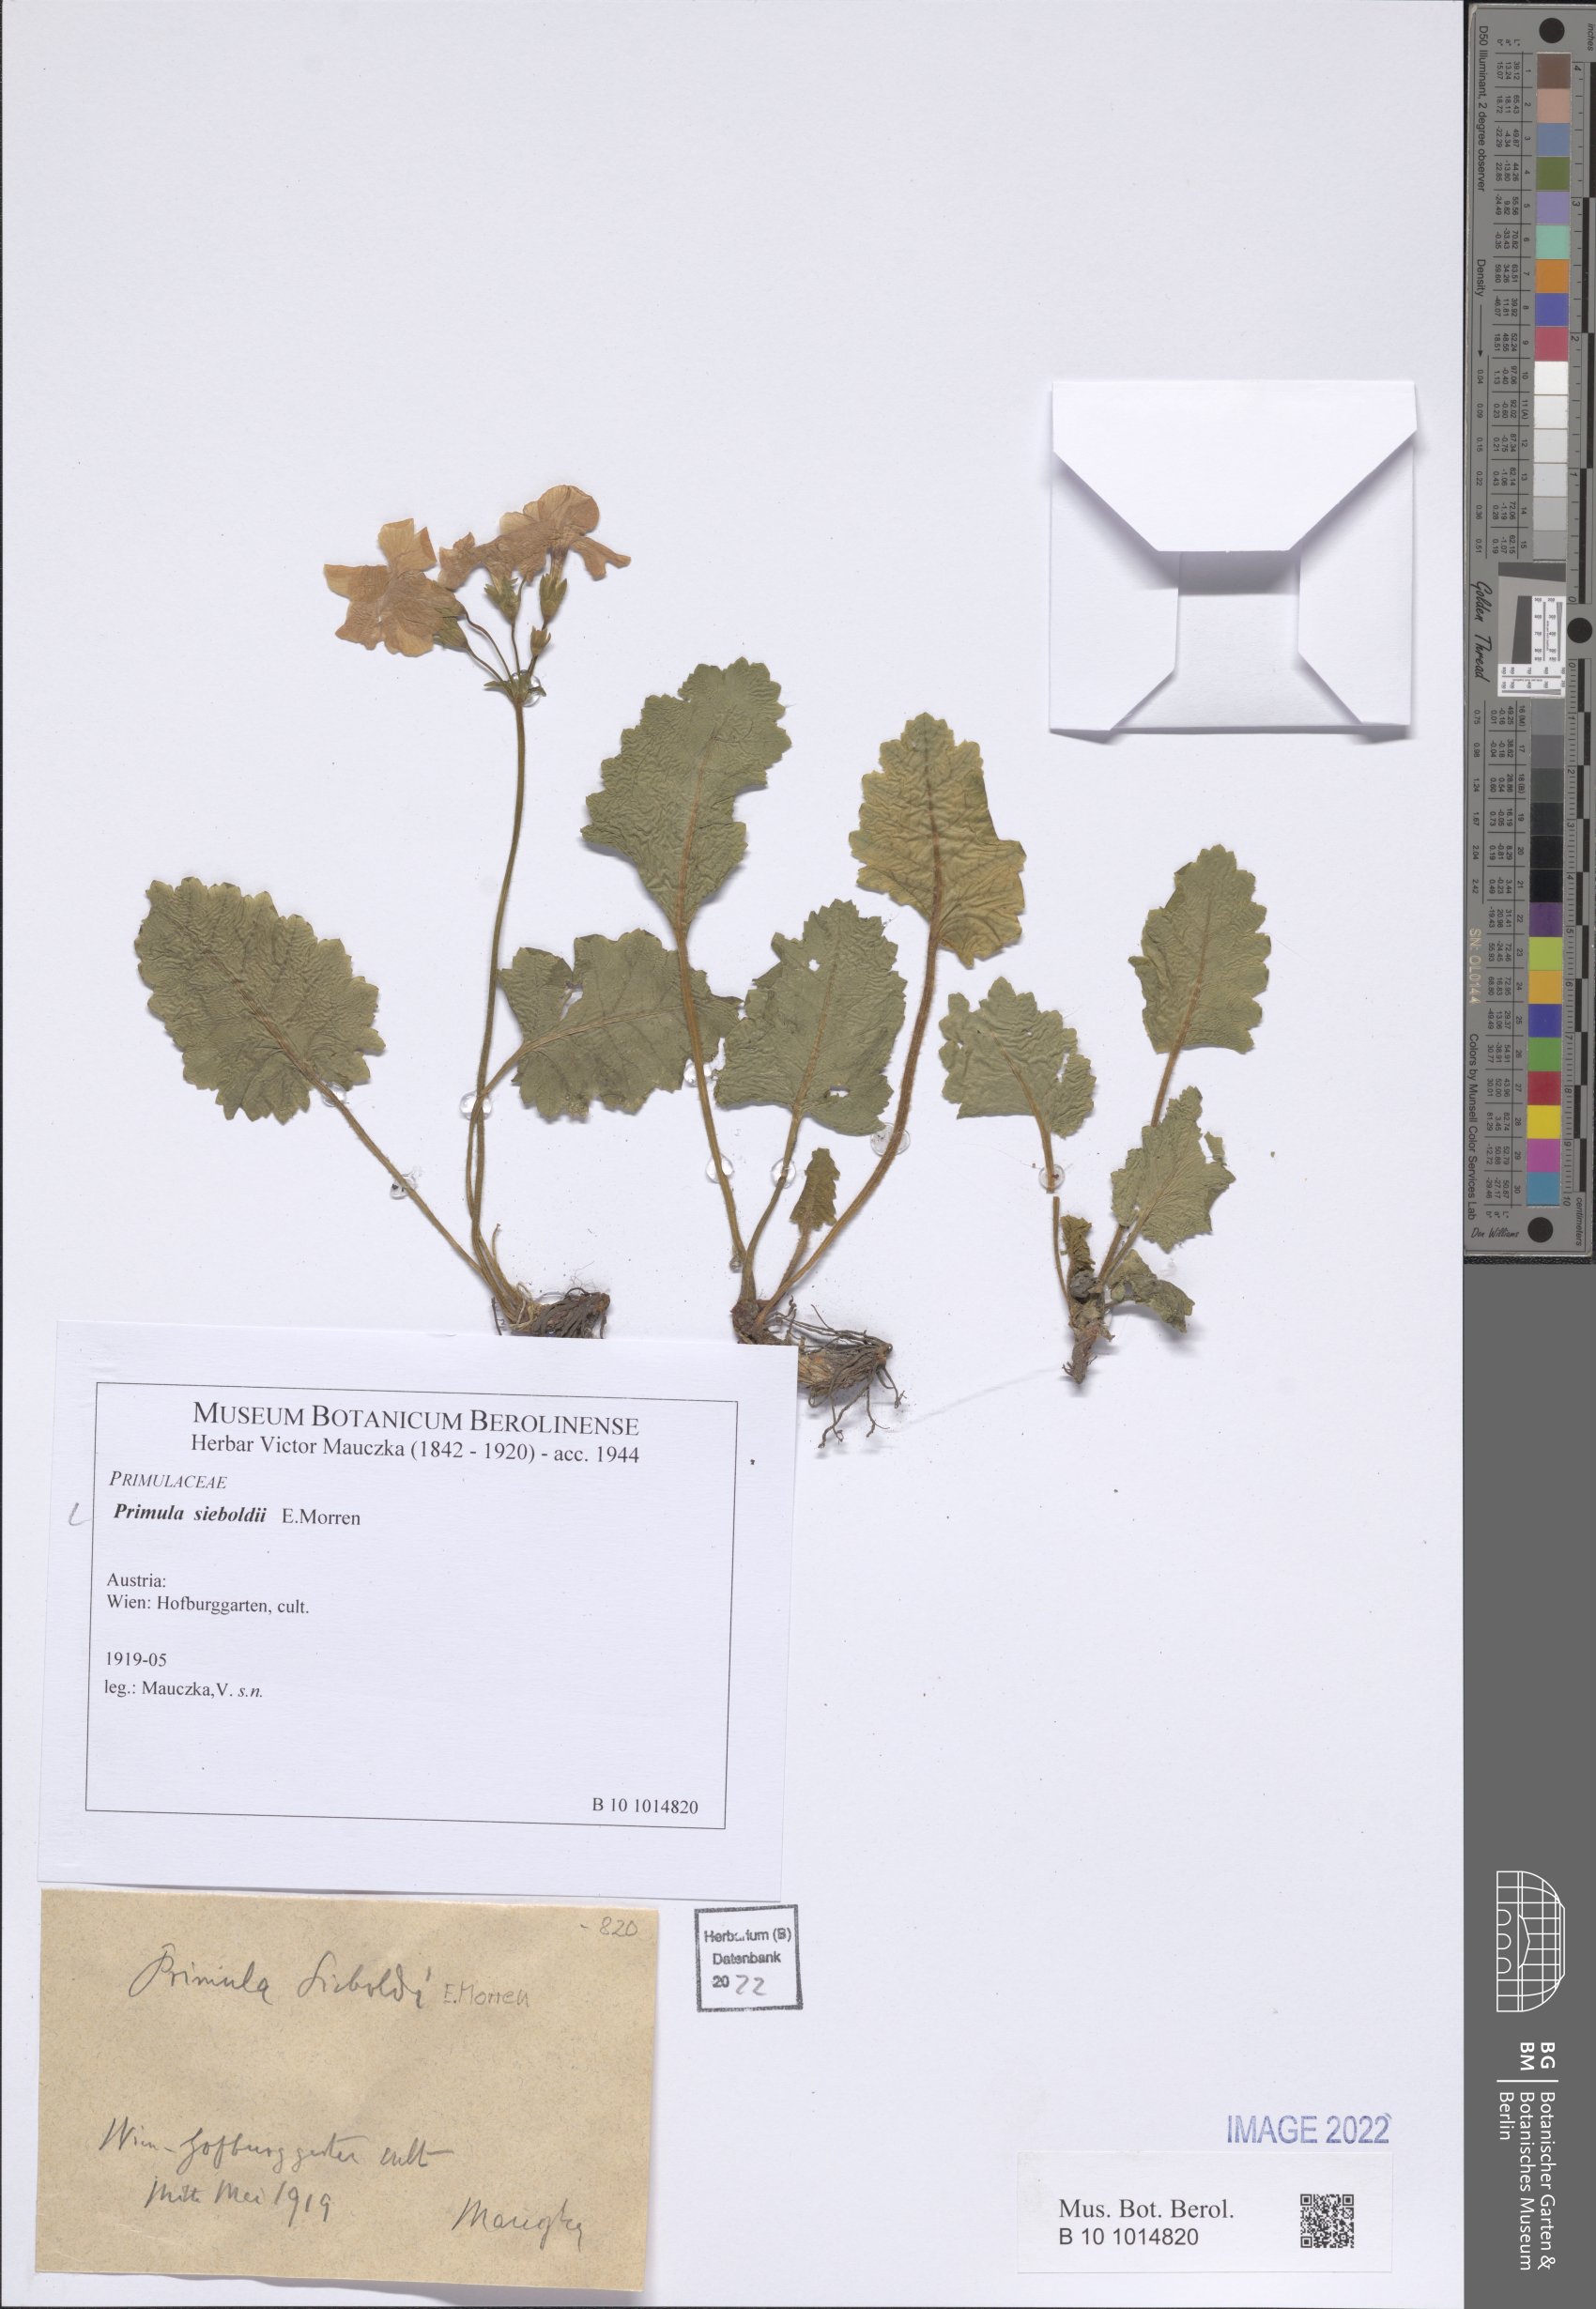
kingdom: Plantae
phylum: Tracheophyta
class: Magnoliopsida
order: Ericales
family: Primulaceae
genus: Primula
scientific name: Primula sieboldii
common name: Japanese primrose
